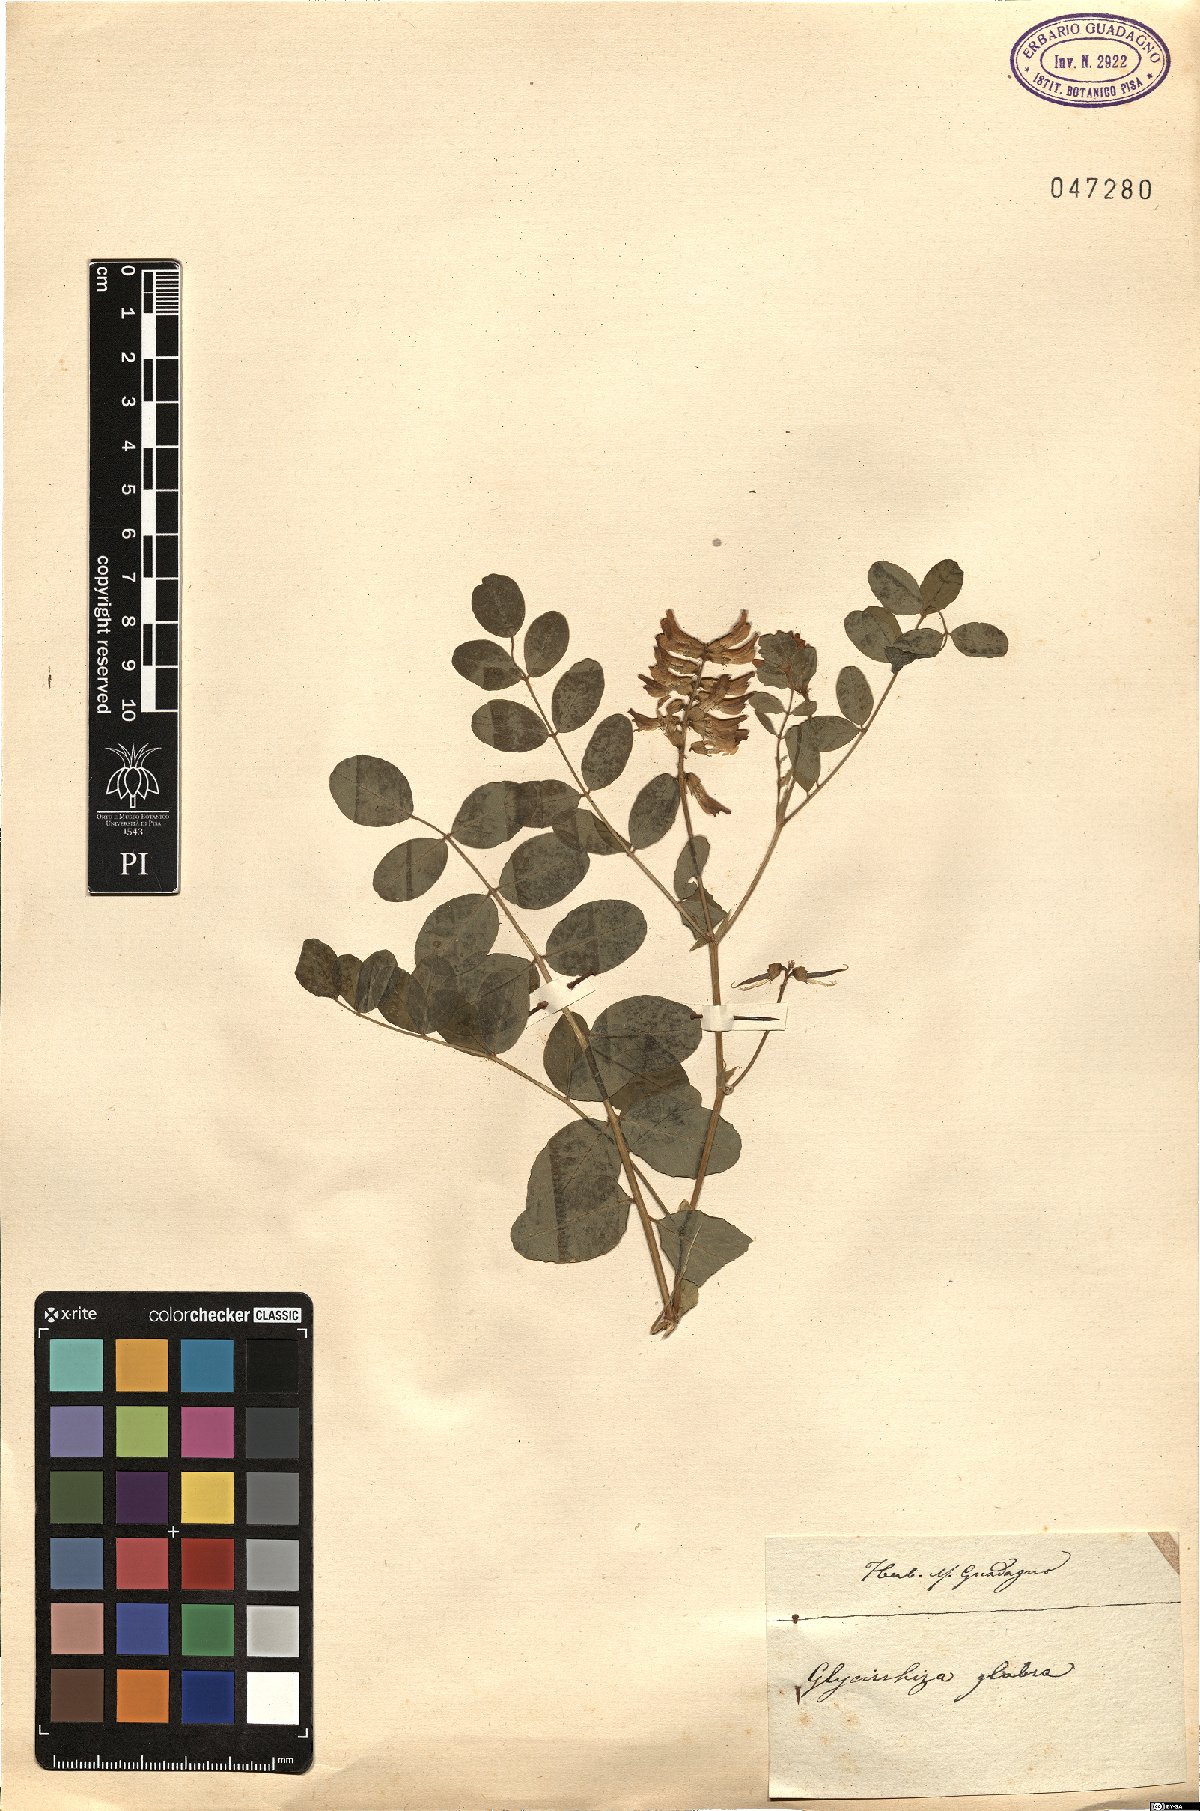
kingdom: Plantae
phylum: Tracheophyta
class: Magnoliopsida
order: Fabales
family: Fabaceae
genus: Glycyrrhiza
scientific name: Glycyrrhiza glabra
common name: Liquorice
